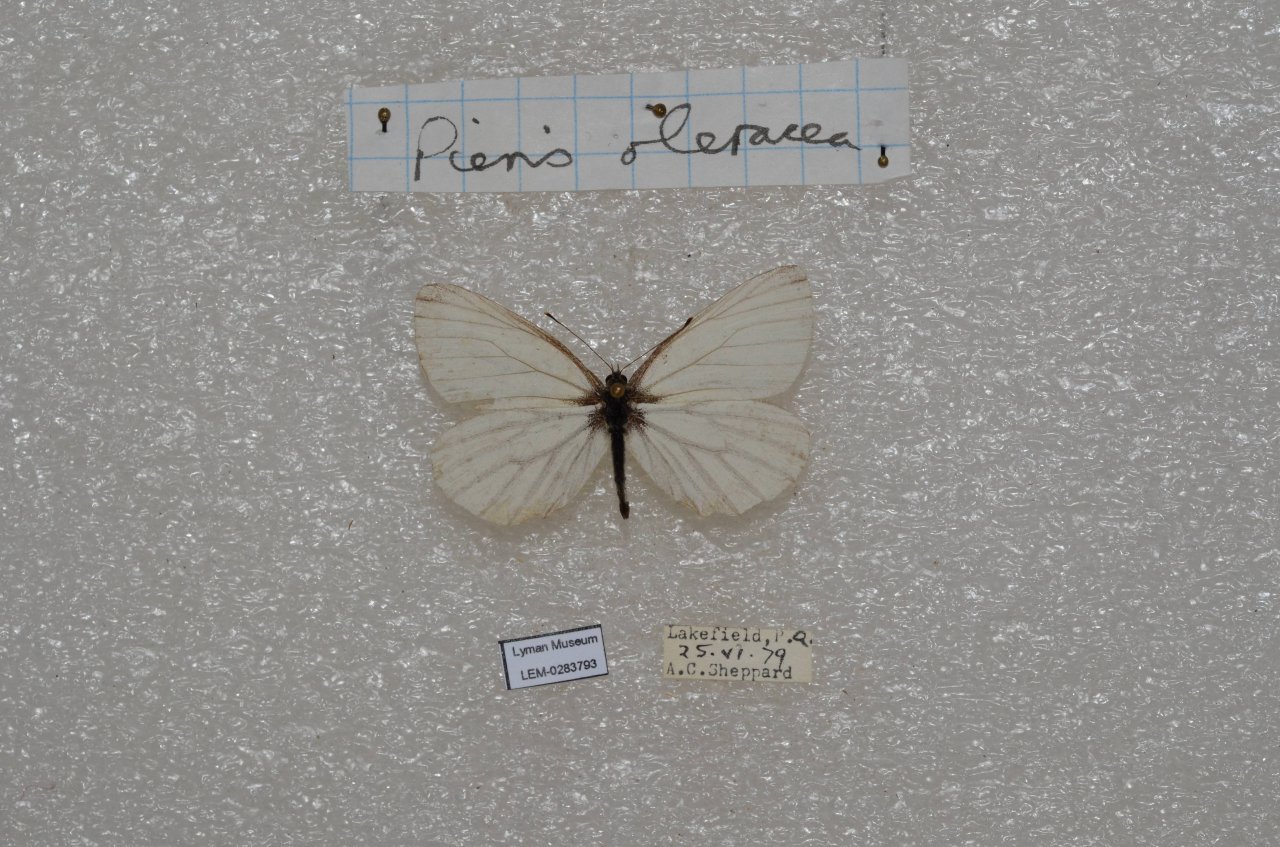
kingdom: Animalia
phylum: Arthropoda
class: Insecta
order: Lepidoptera
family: Pieridae
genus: Pieris
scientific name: Pieris oleracea
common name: Mustard White
